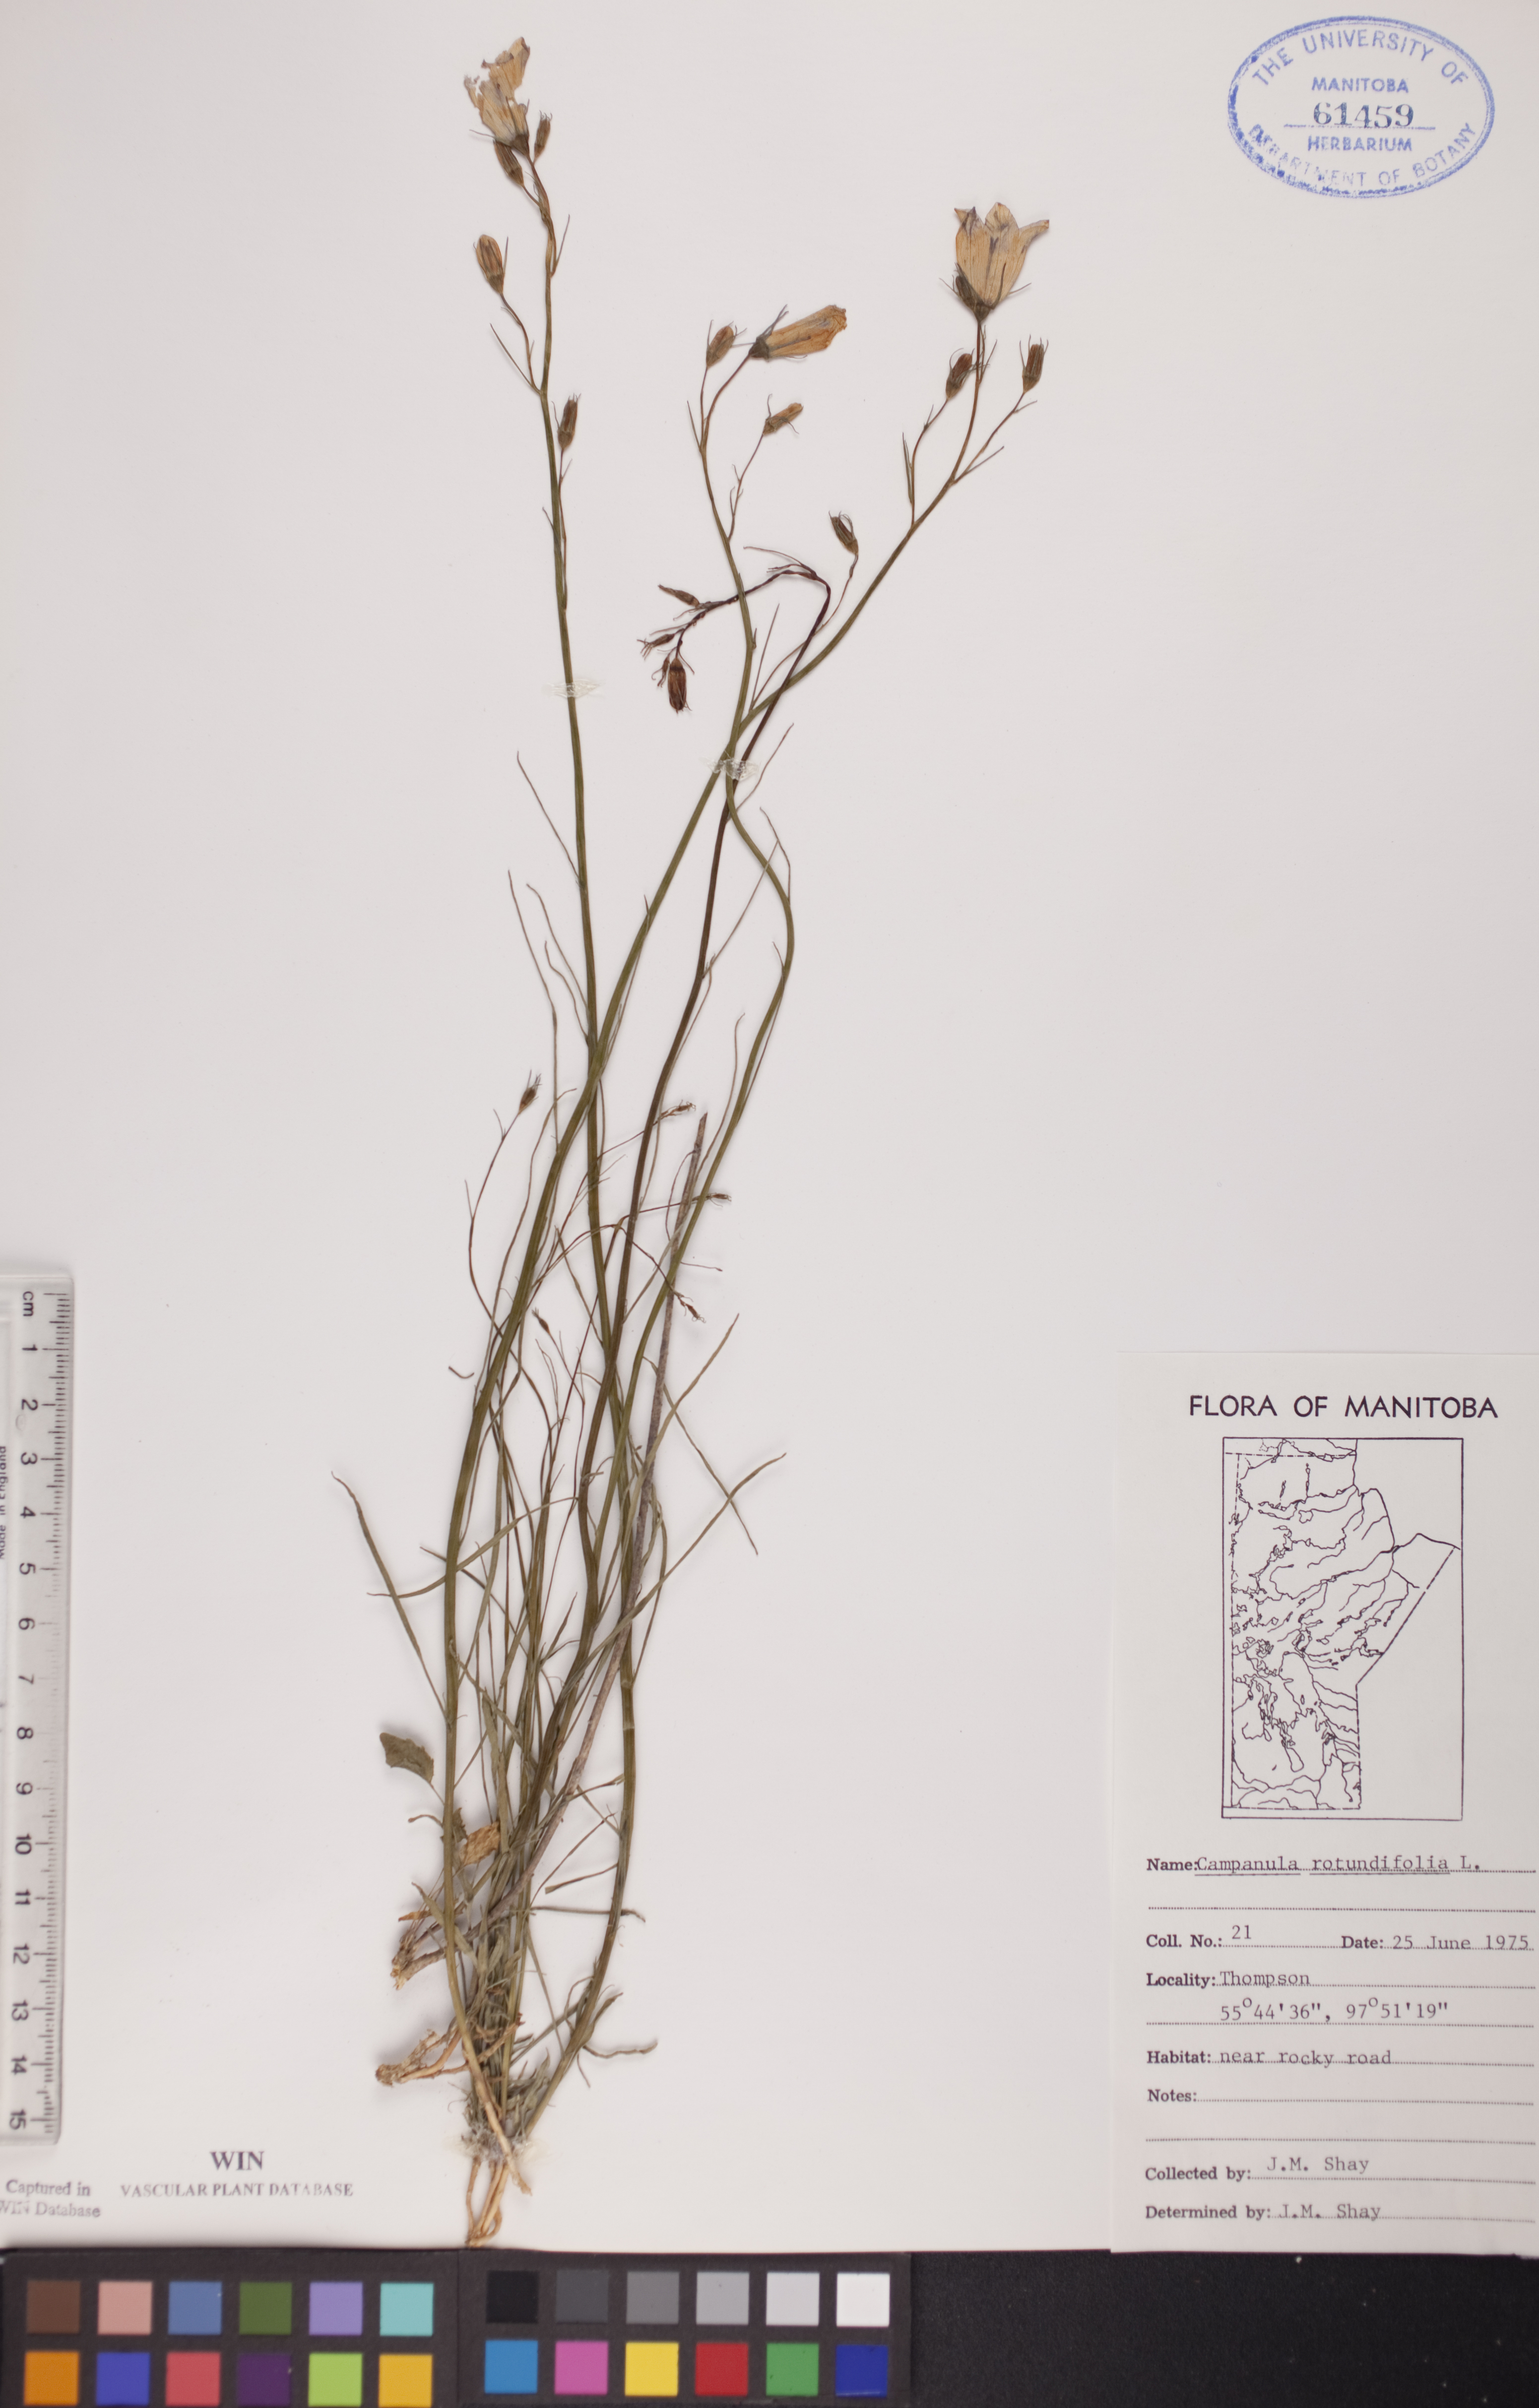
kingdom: Plantae
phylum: Tracheophyta
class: Magnoliopsida
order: Asterales
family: Campanulaceae
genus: Campanula
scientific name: Campanula rotundifolia
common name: Harebell
